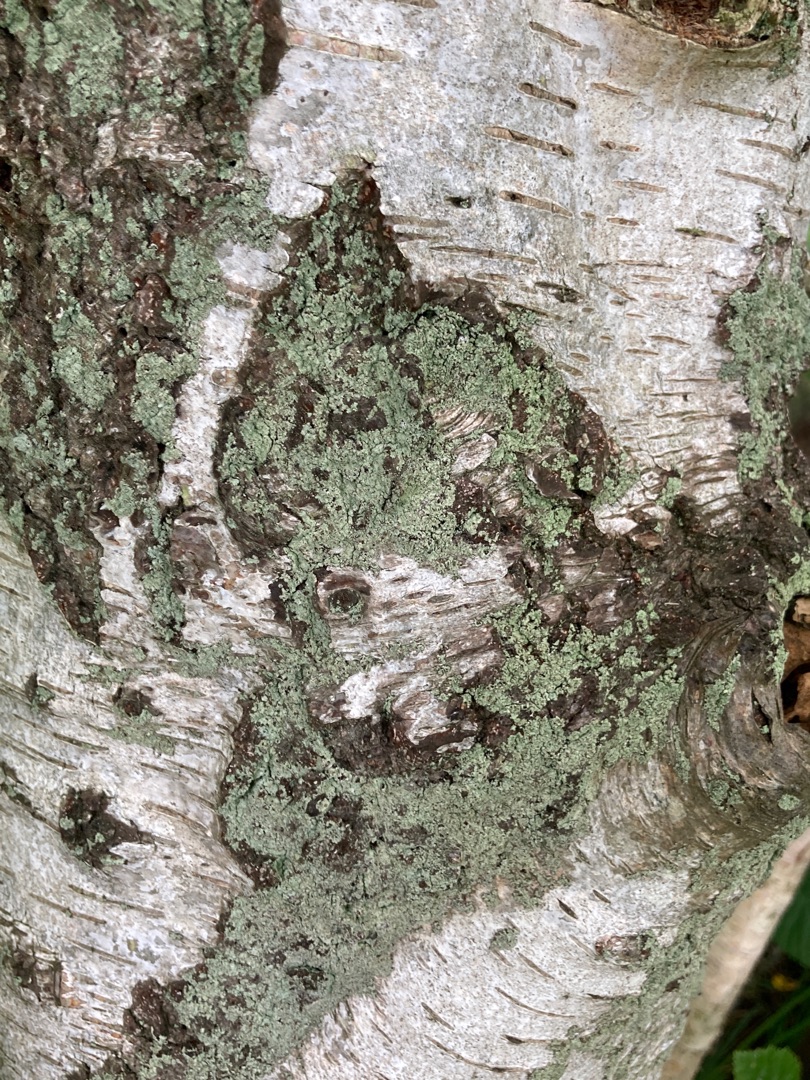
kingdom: Fungi
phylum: Ascomycota
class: Lecanoromycetes
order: Lecanorales
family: Stereocaulaceae
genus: Lepraria
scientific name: Lepraria incana
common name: Almindelig støvlav
